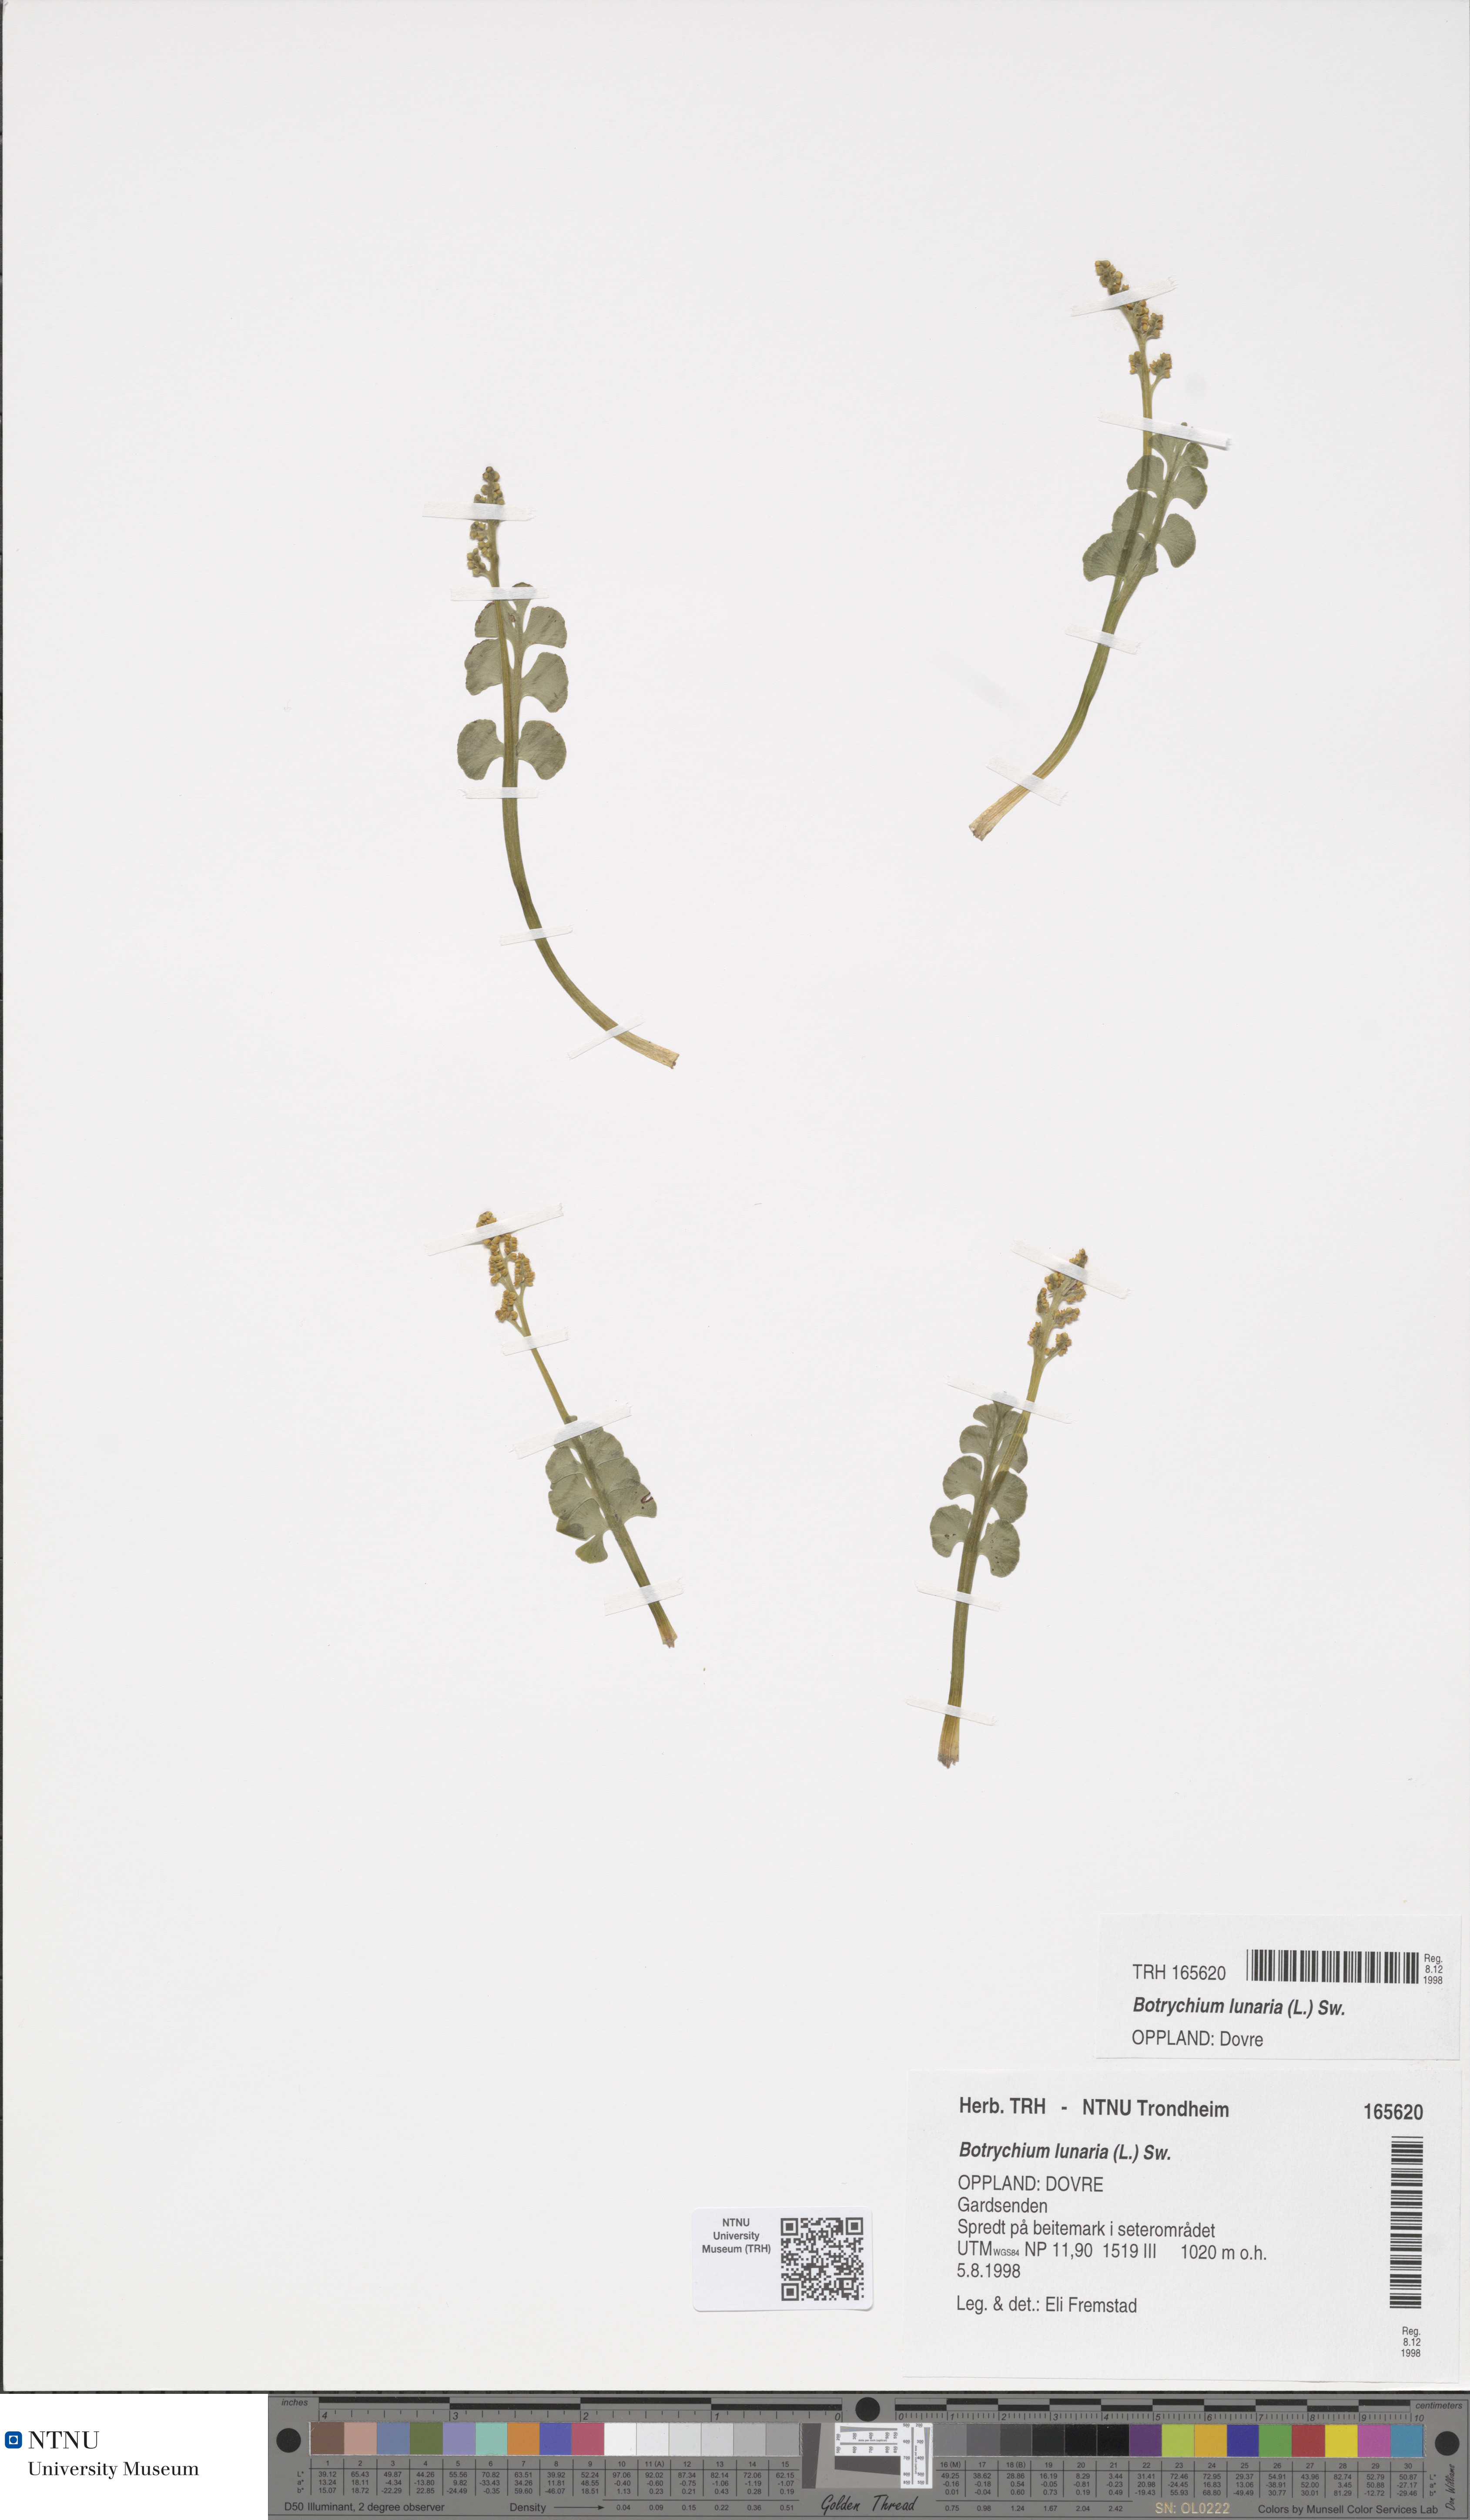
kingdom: Plantae
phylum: Tracheophyta
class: Polypodiopsida
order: Ophioglossales
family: Ophioglossaceae
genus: Botrychium
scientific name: Botrychium lunaria
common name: Moonwort
